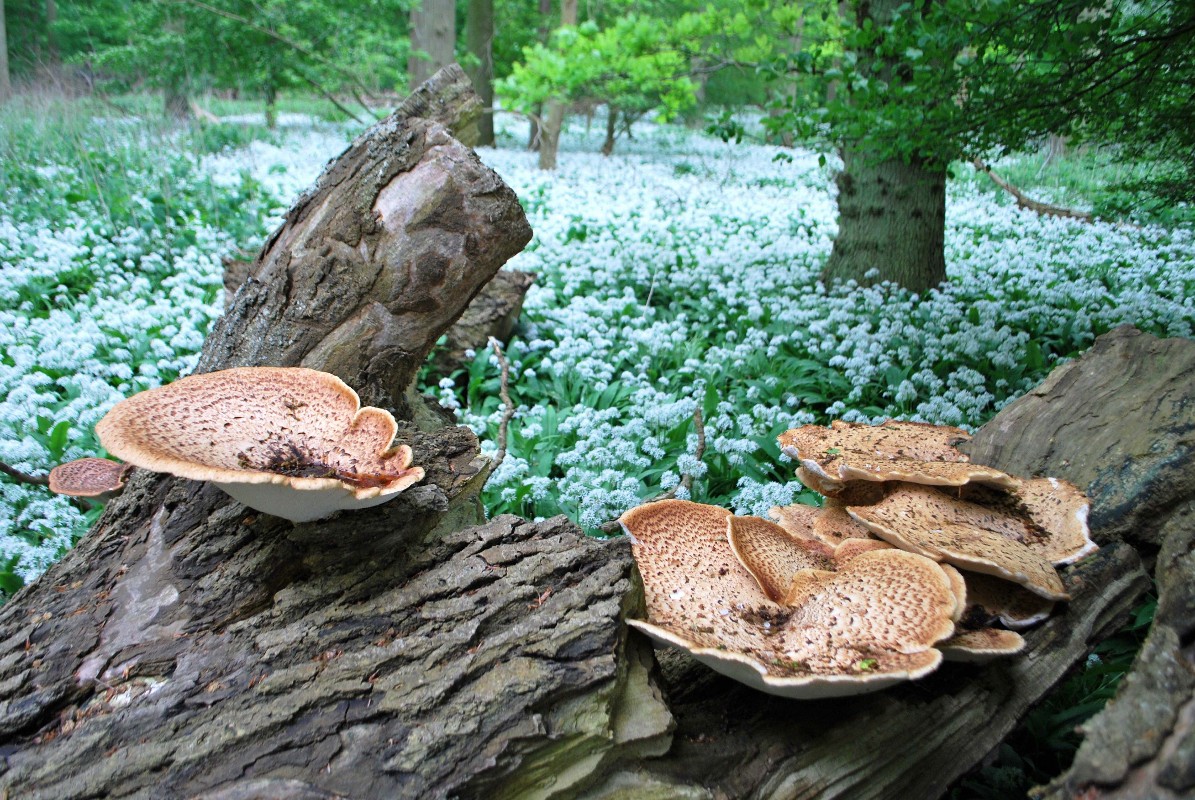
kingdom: Fungi
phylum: Basidiomycota
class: Agaricomycetes
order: Polyporales
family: Polyporaceae
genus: Cerioporus
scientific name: Cerioporus squamosus
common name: skællet stilkporesvamp
